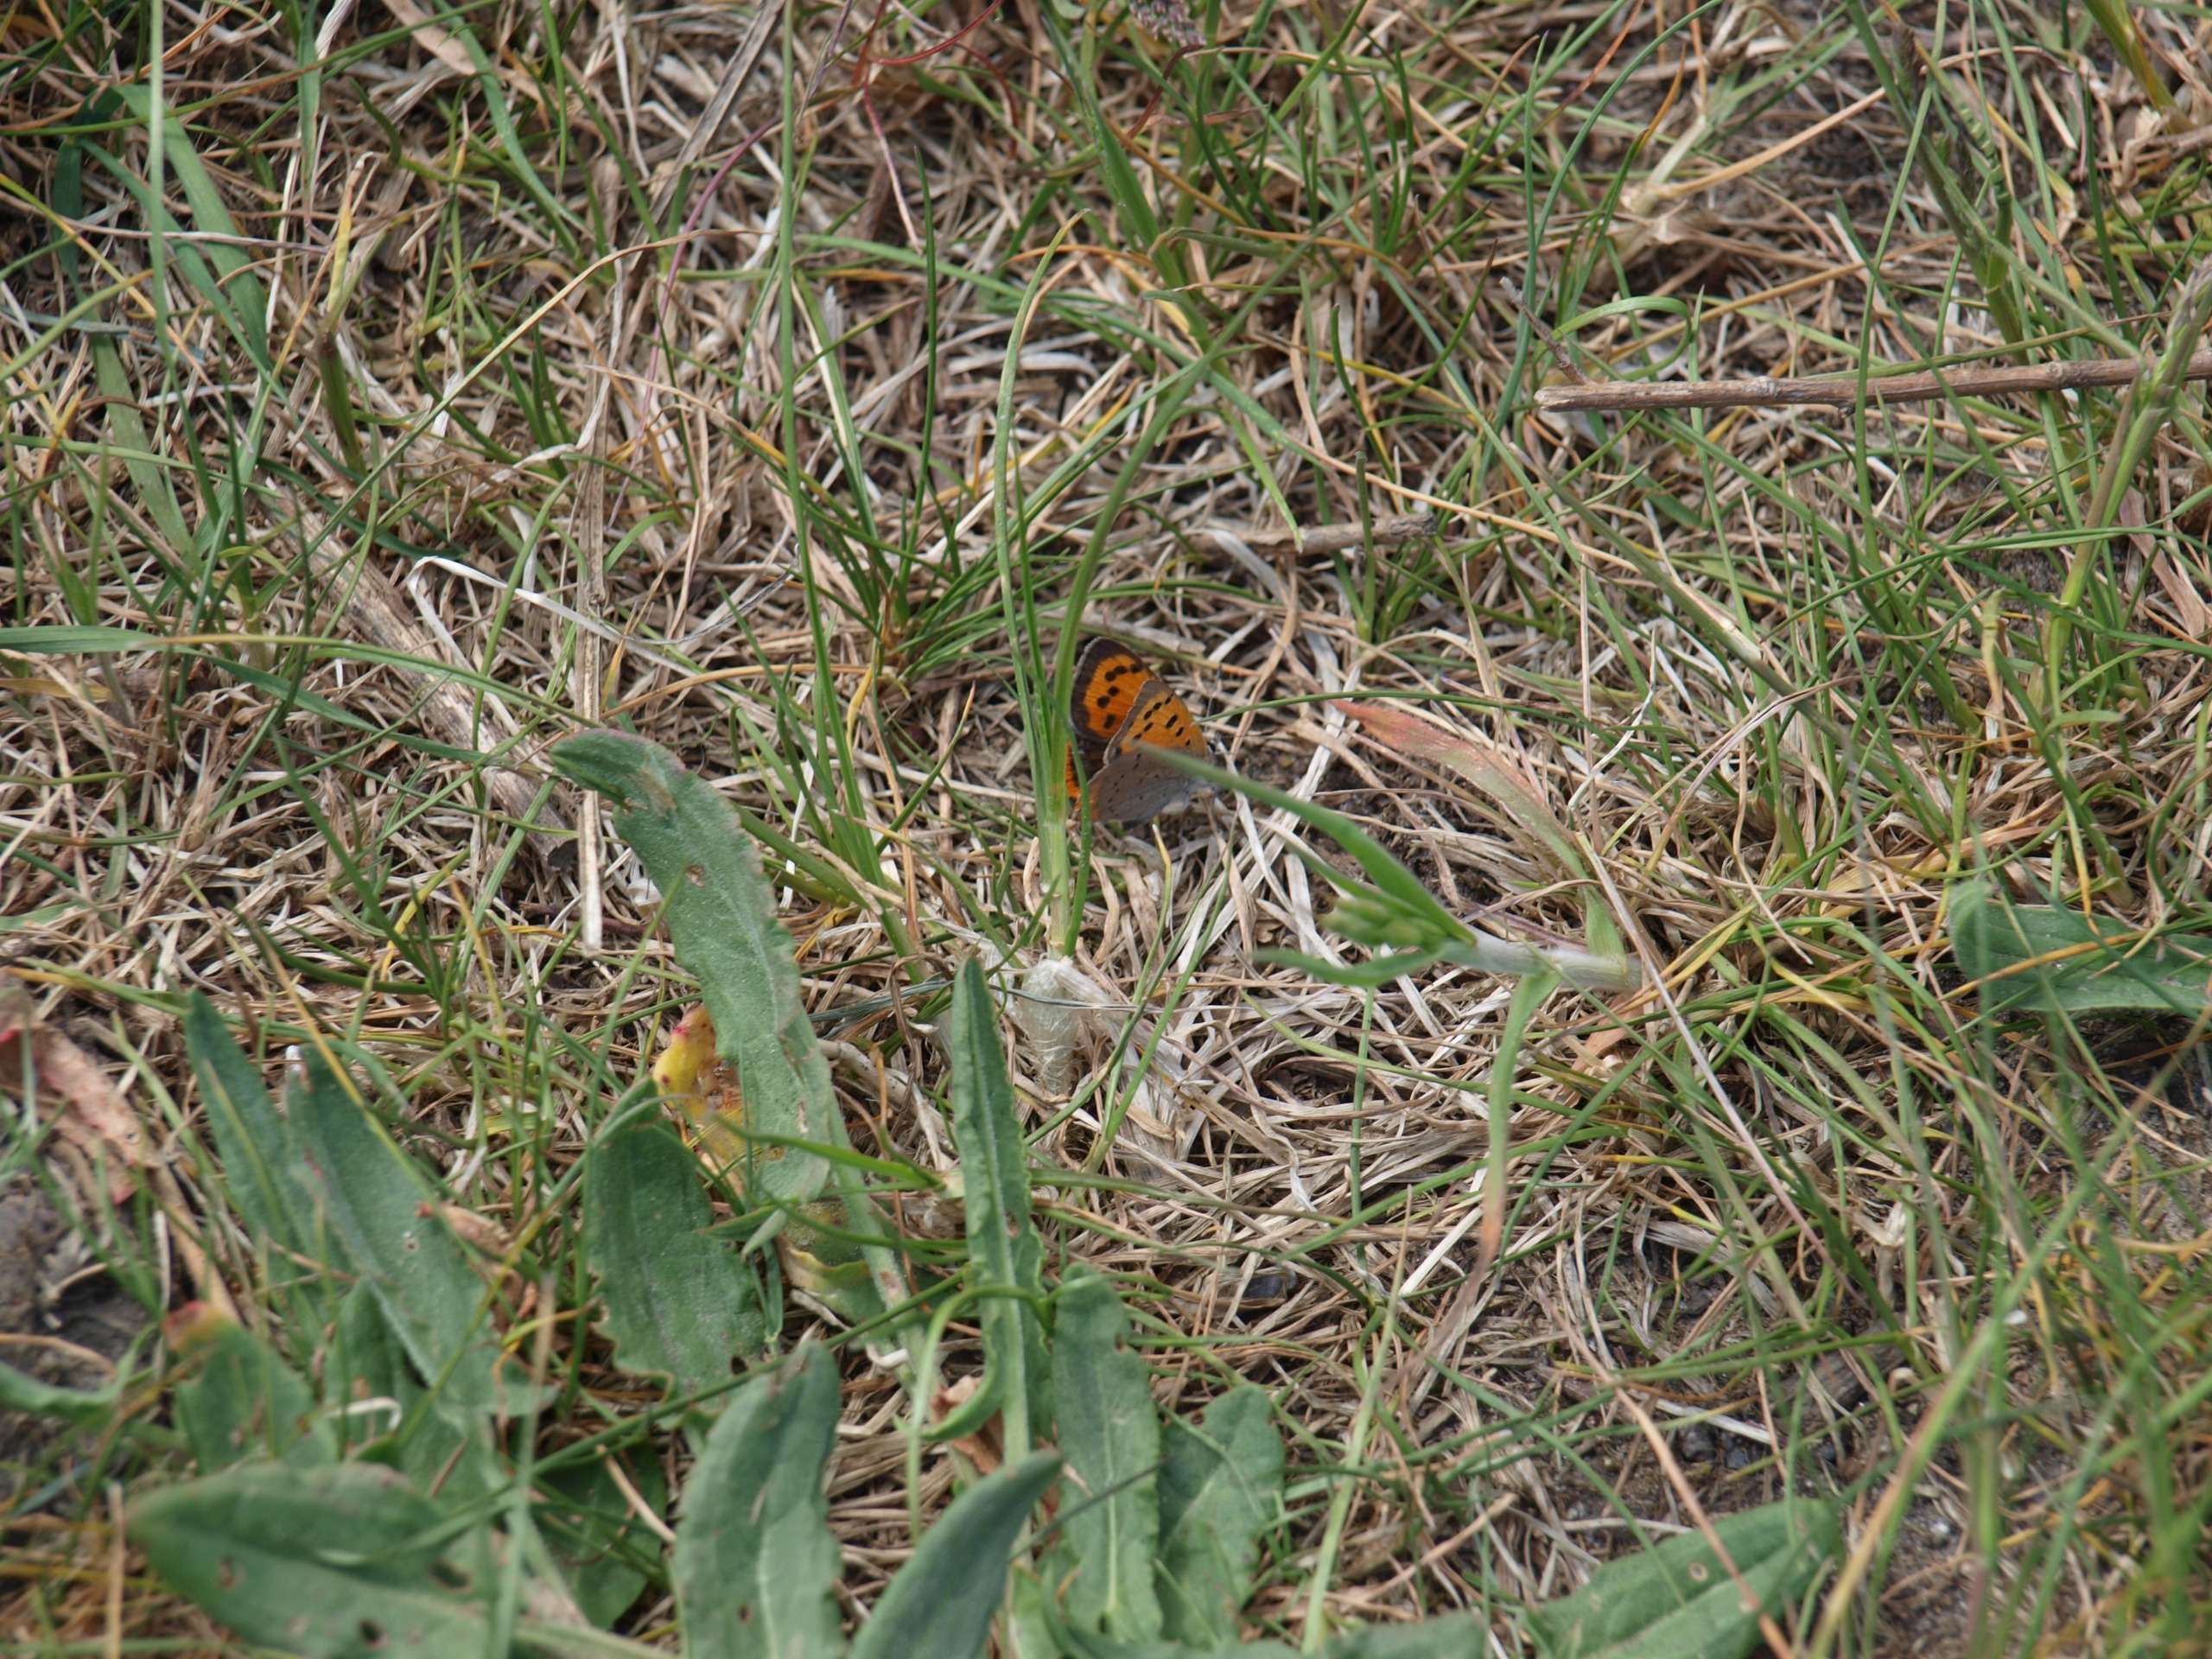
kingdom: Animalia
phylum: Arthropoda
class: Insecta
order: Lepidoptera
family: Lycaenidae
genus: Lycaena
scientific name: Lycaena phlaeas
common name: Lille ildfugl
